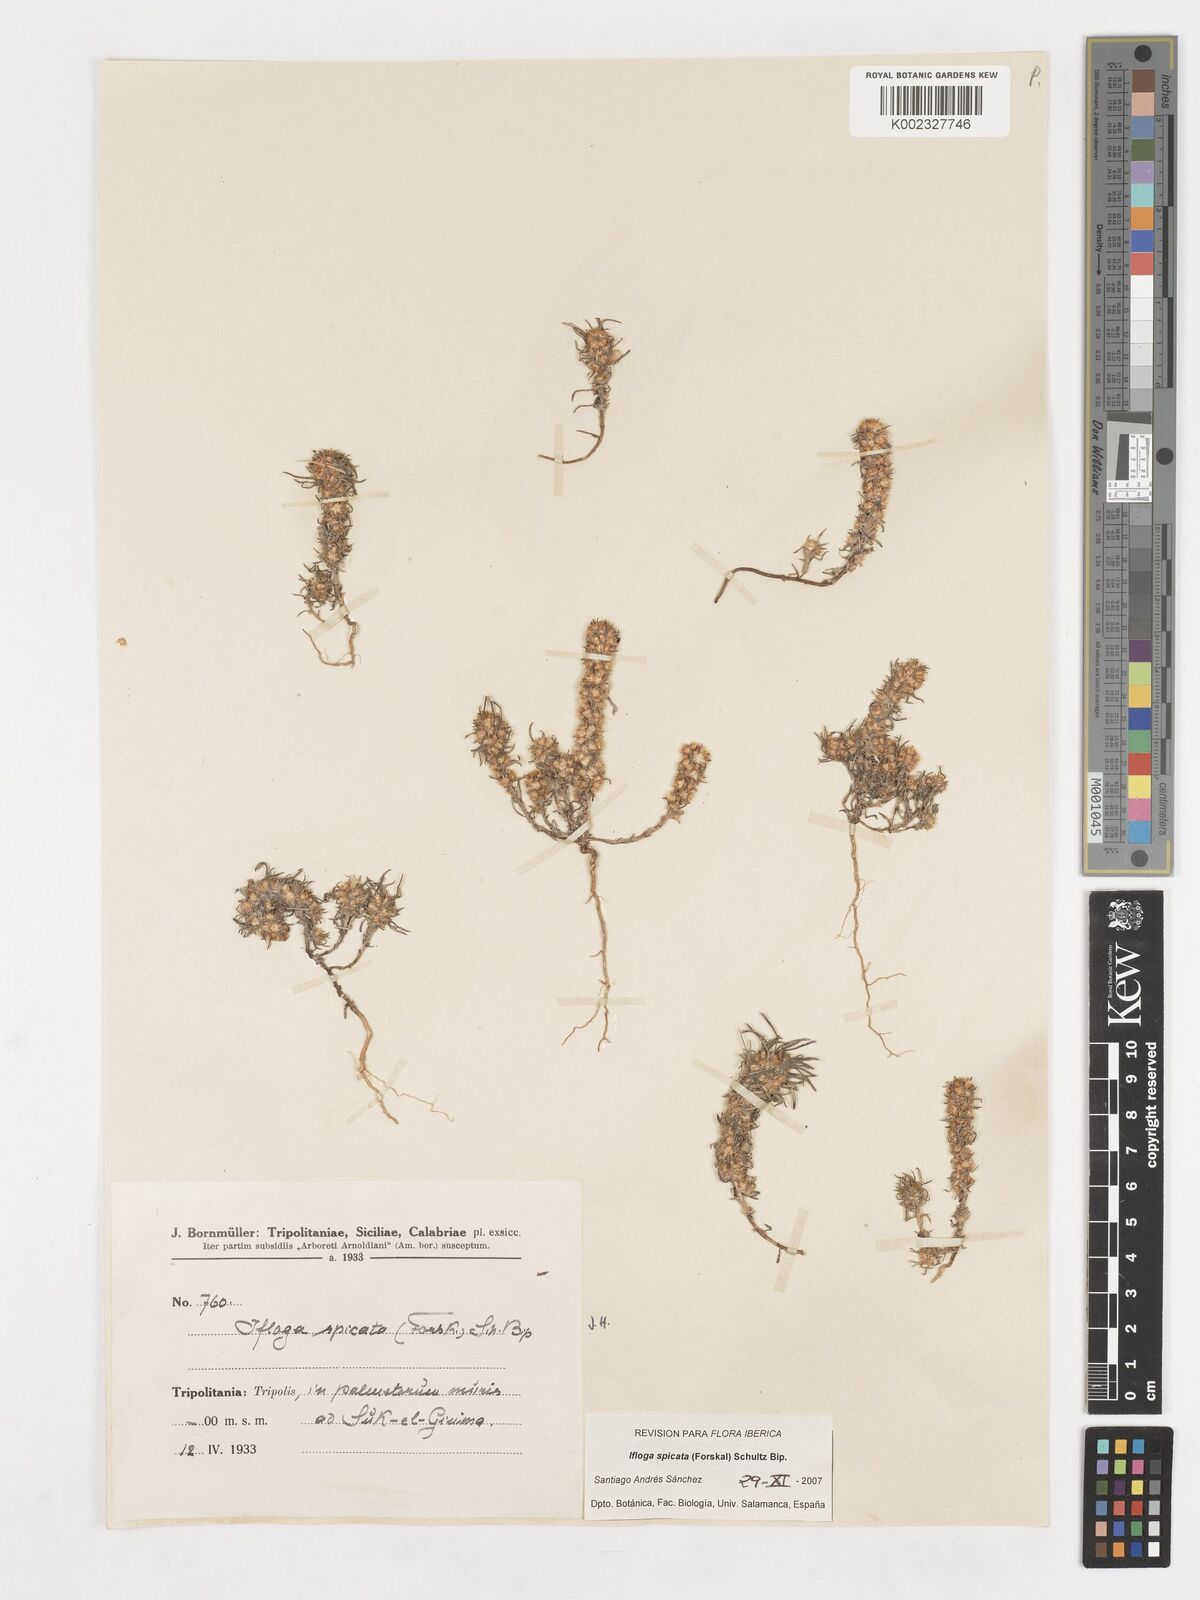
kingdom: Plantae
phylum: Tracheophyta
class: Magnoliopsida
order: Asterales
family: Asteraceae
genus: Ifloga
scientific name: Ifloga spicata
